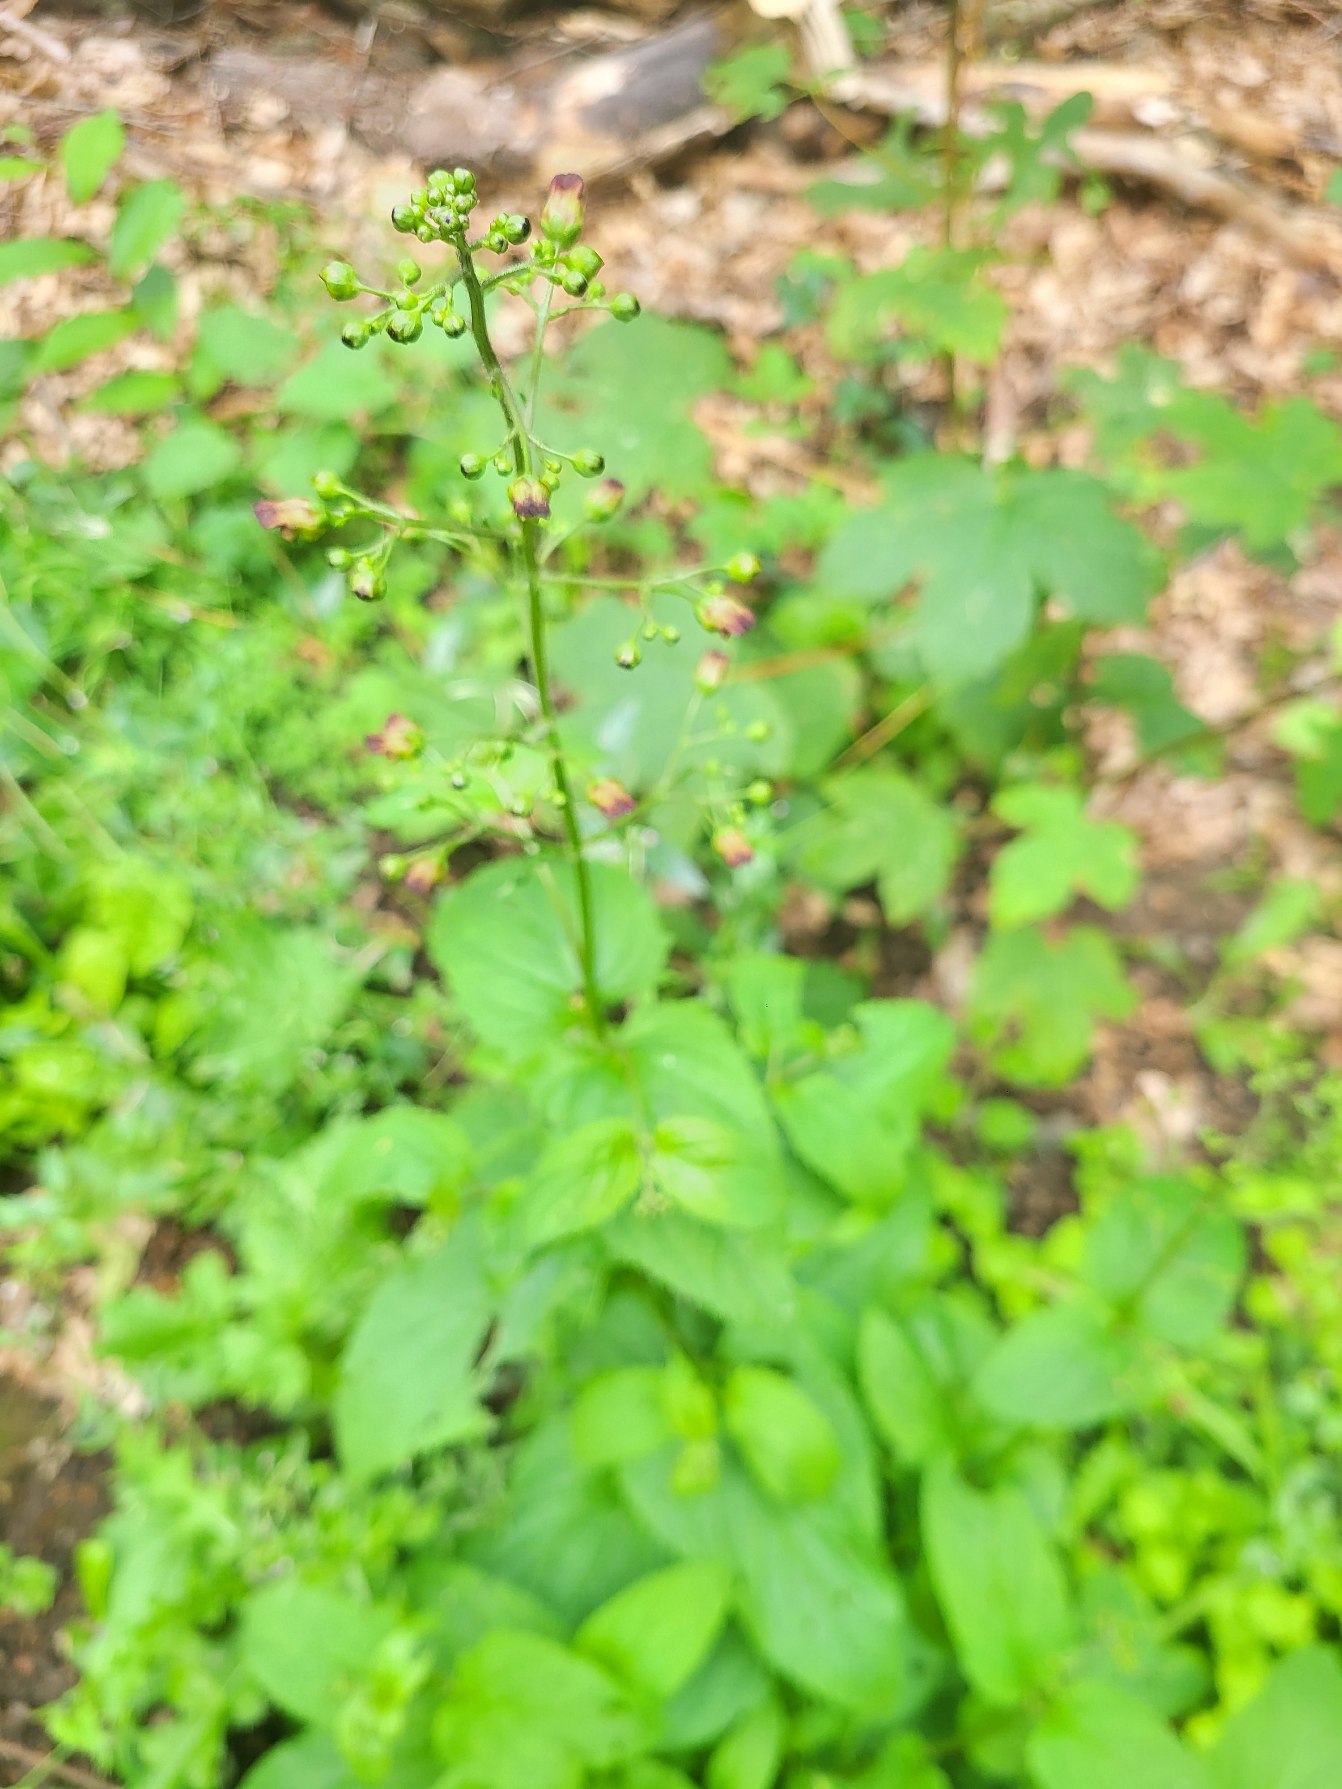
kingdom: Plantae
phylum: Tracheophyta
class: Magnoliopsida
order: Lamiales
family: Scrophulariaceae
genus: Scrophularia
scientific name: Scrophularia nodosa
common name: Knoldet brunrod
